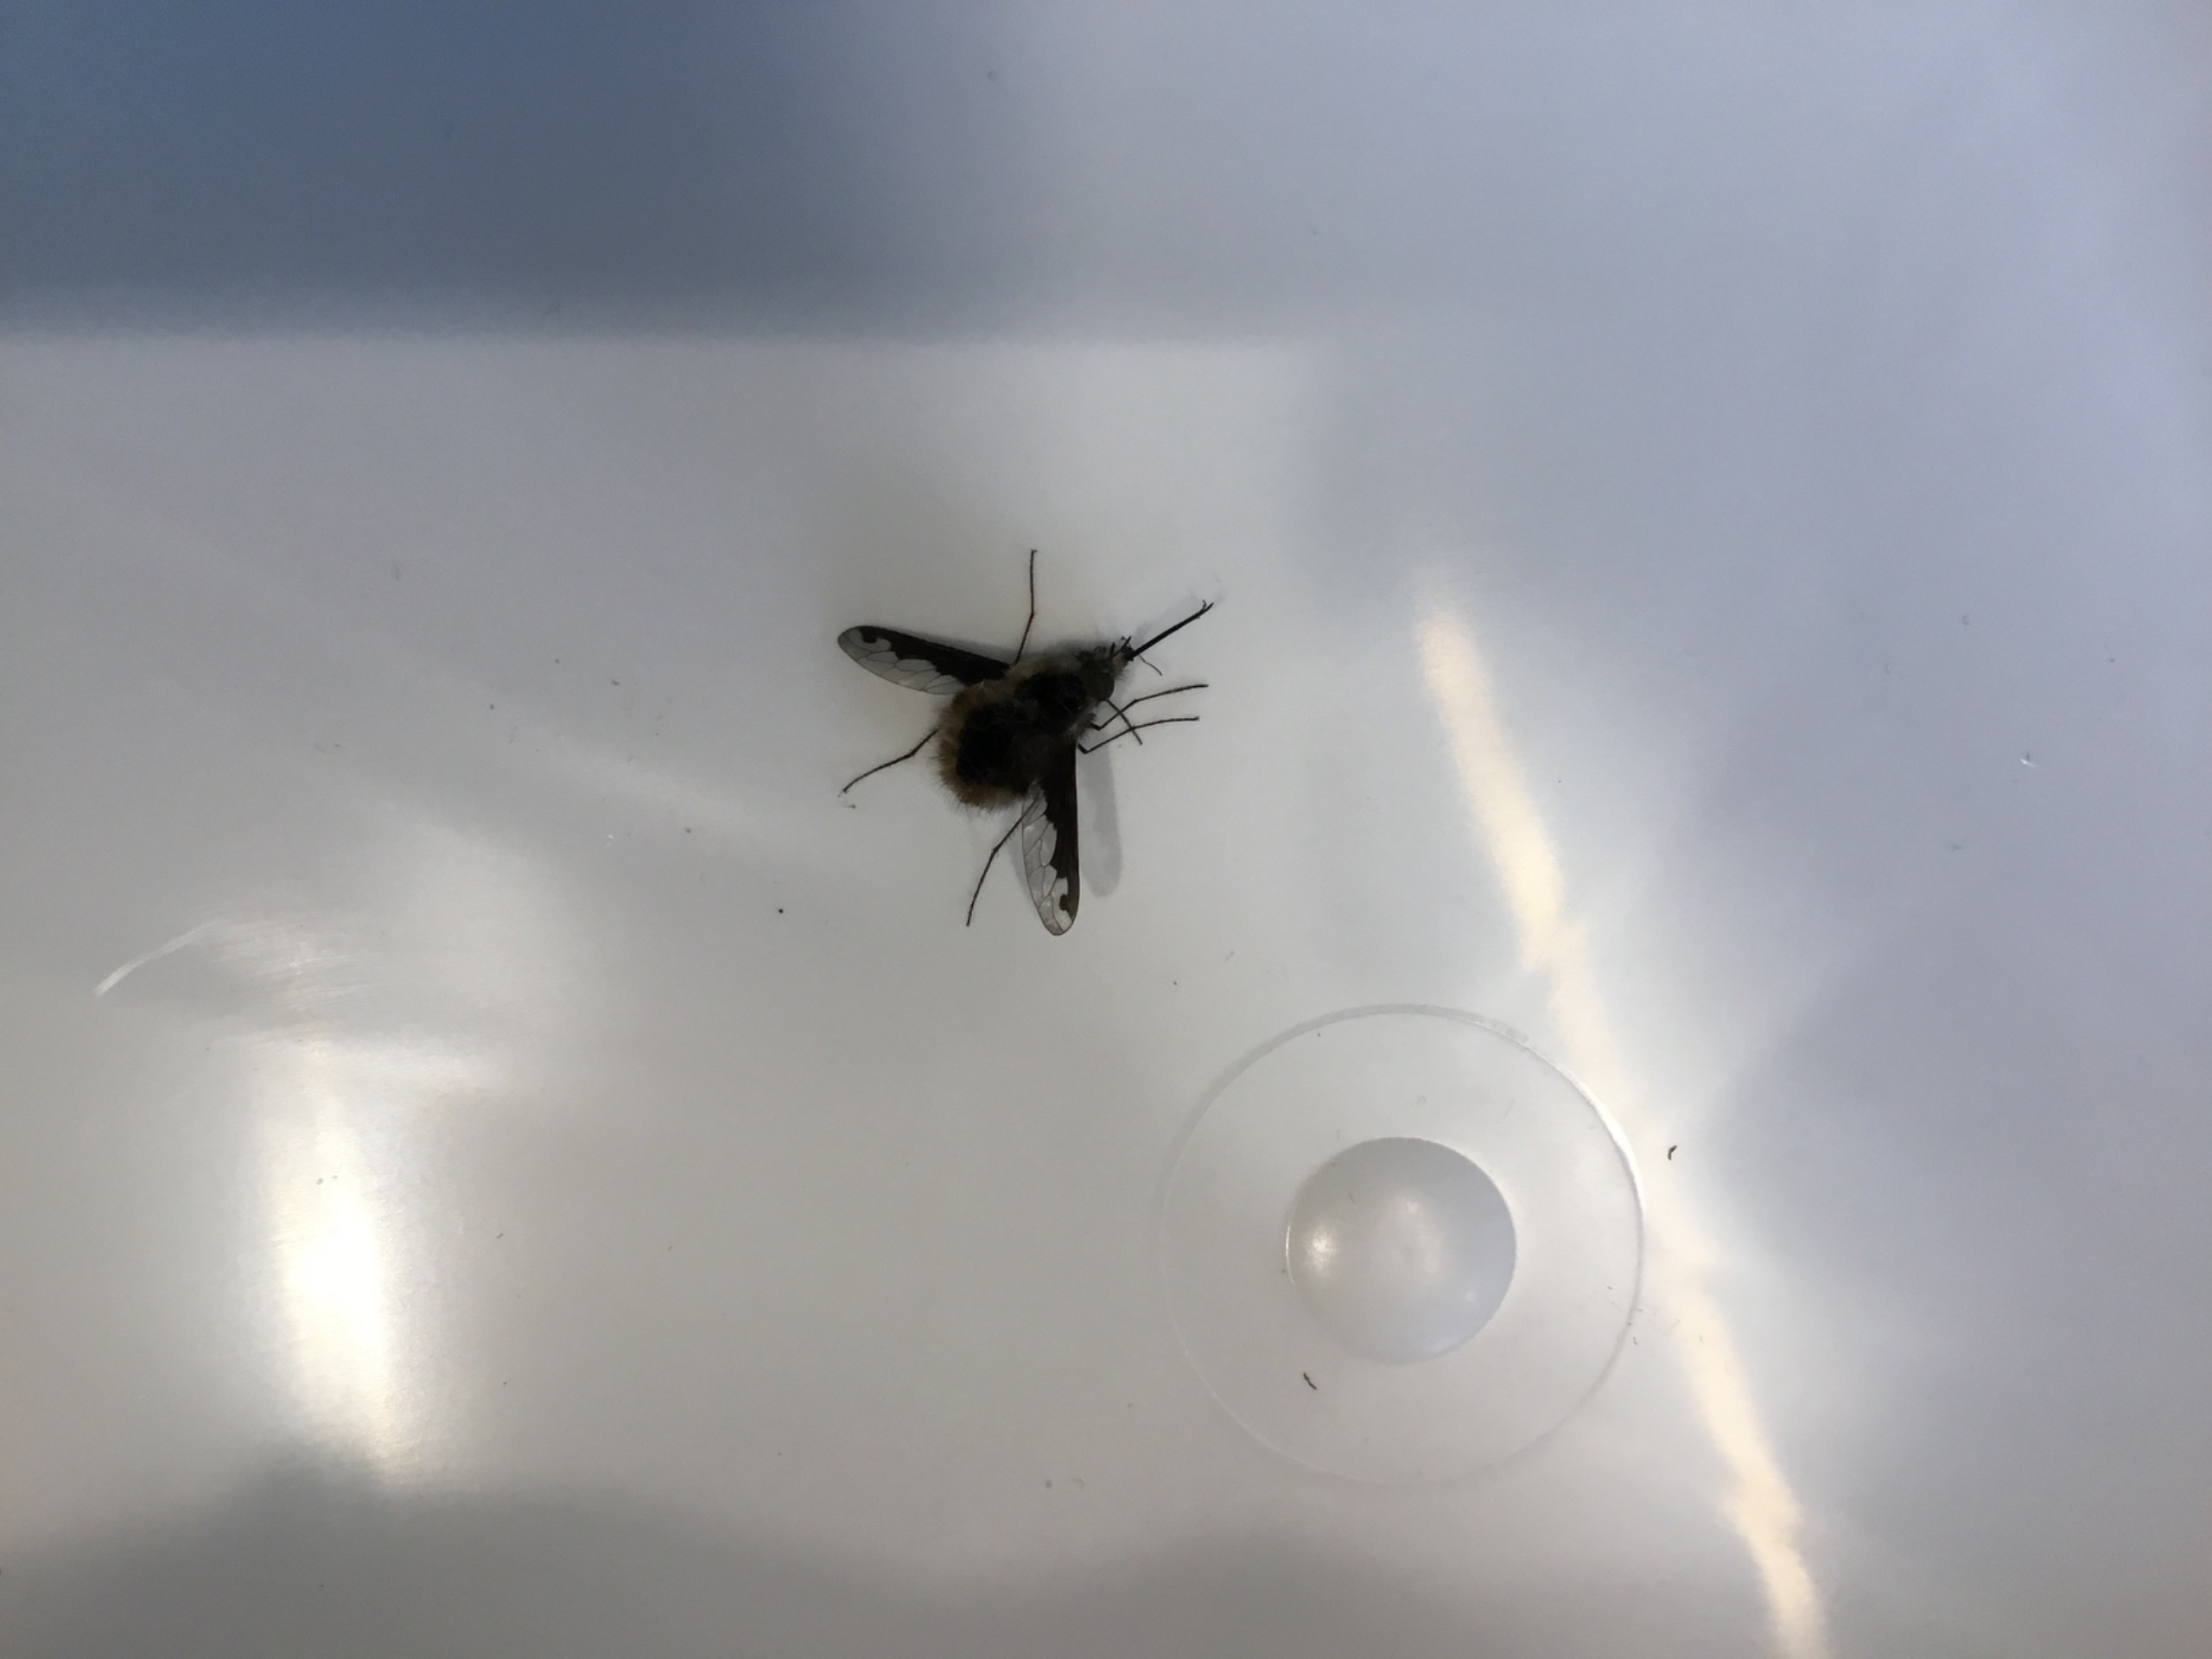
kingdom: Animalia
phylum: Arthropoda
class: Insecta
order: Diptera
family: Bombyliidae
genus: Bombylius
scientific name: Bombylius major
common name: Stor humleflue
